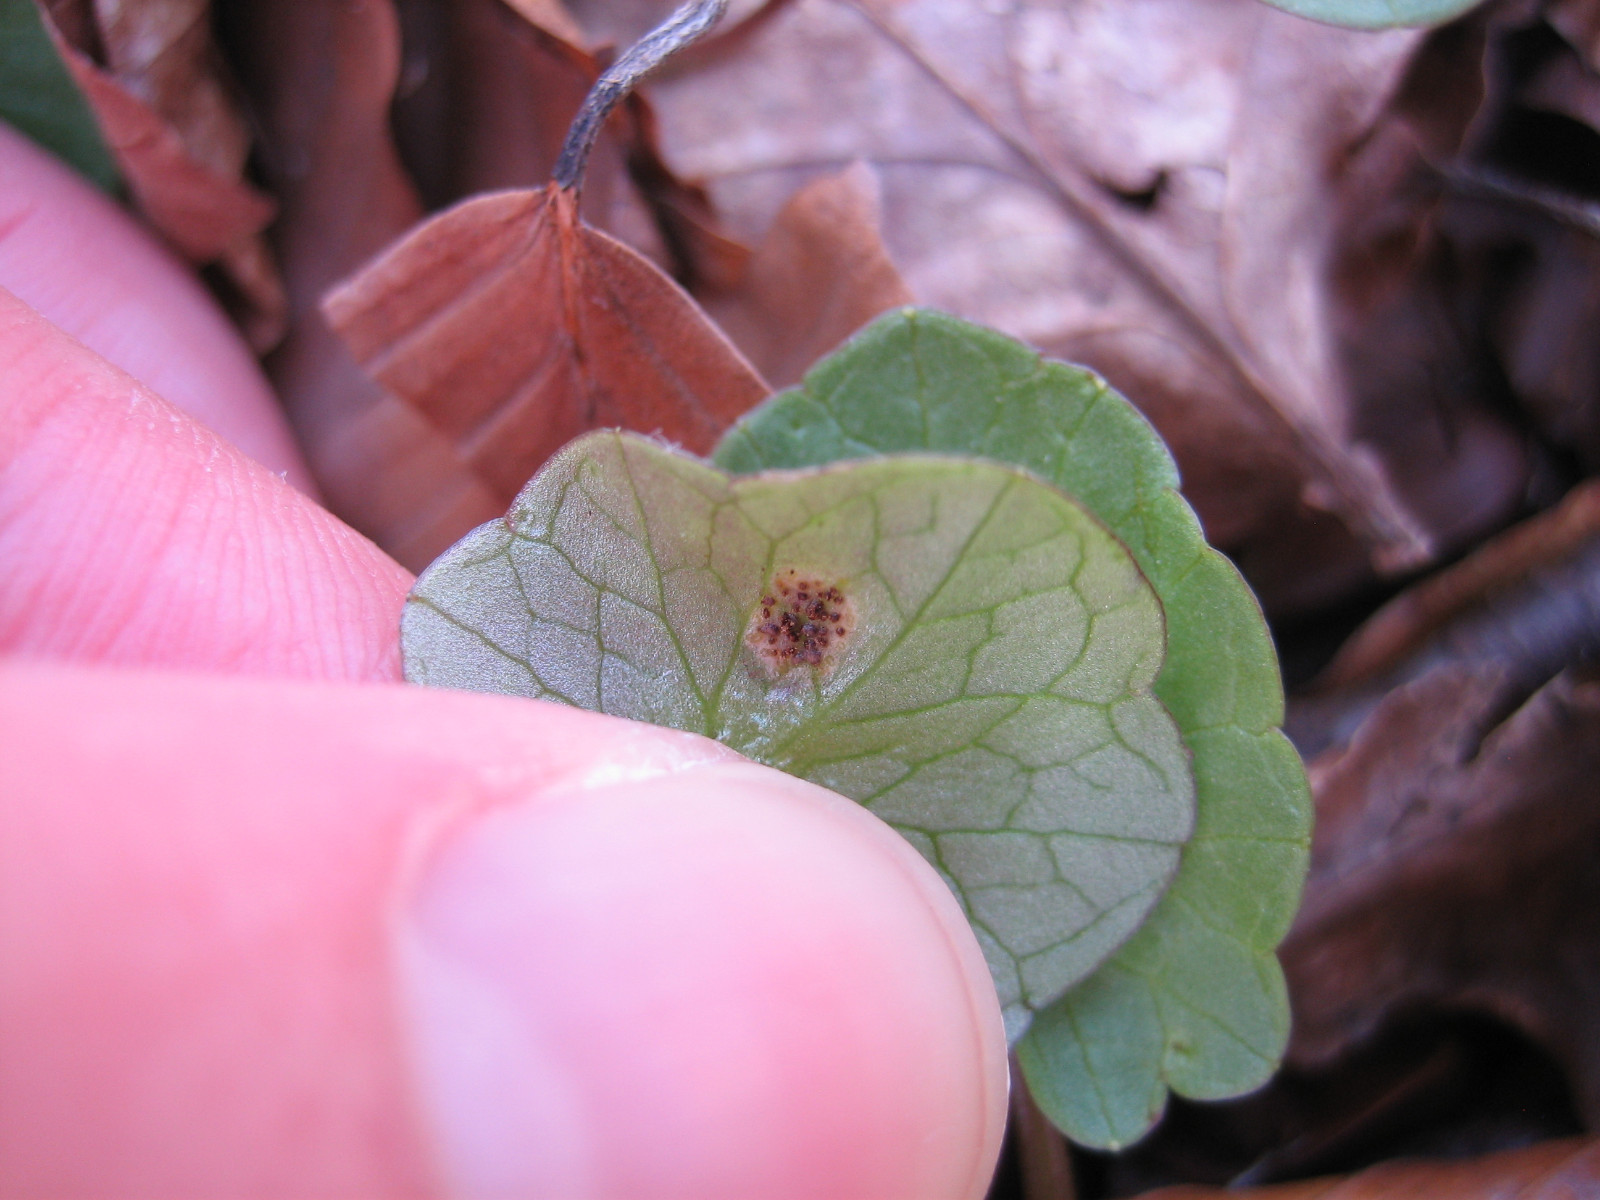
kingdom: Fungi
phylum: Basidiomycota
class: Pucciniomycetes
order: Pucciniales
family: Pucciniaceae
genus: Uromyces
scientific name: Uromyces ficariae
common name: vorterod-encellerust
